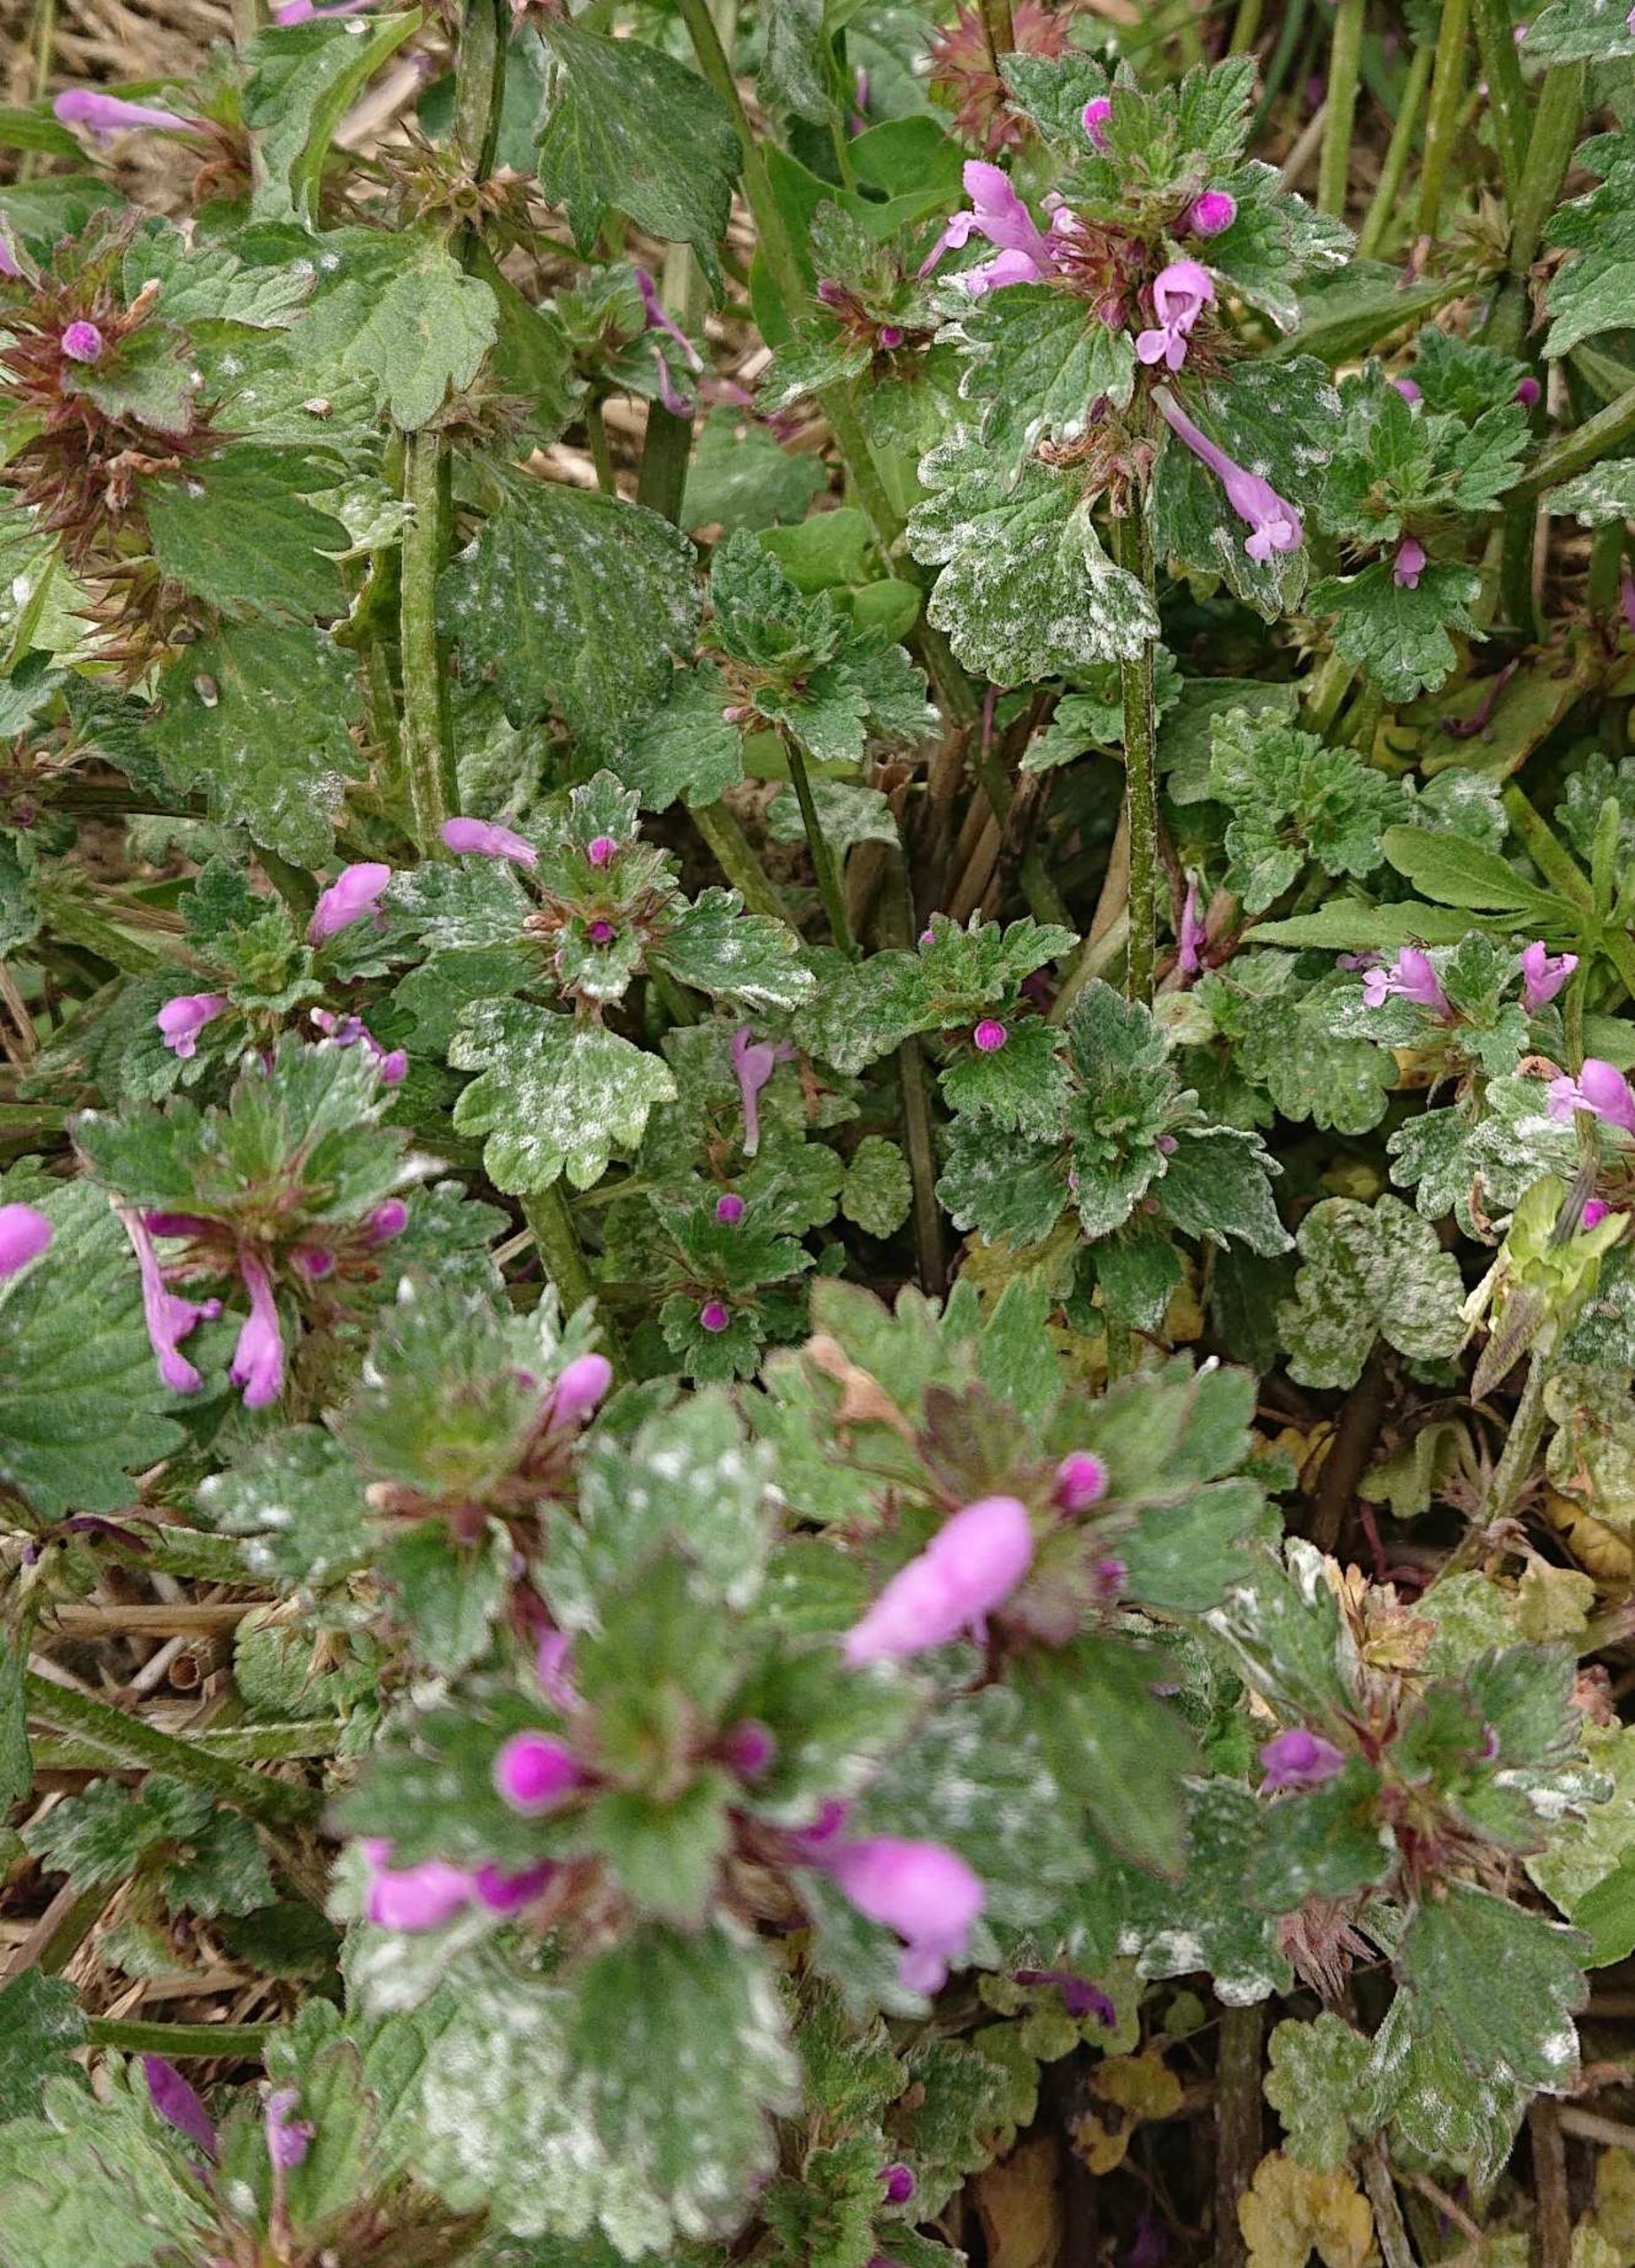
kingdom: Plantae
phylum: Tracheophyta
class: Magnoliopsida
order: Lamiales
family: Lamiaceae
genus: Lamium
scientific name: Lamium hybridum
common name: Fliget tvetand
